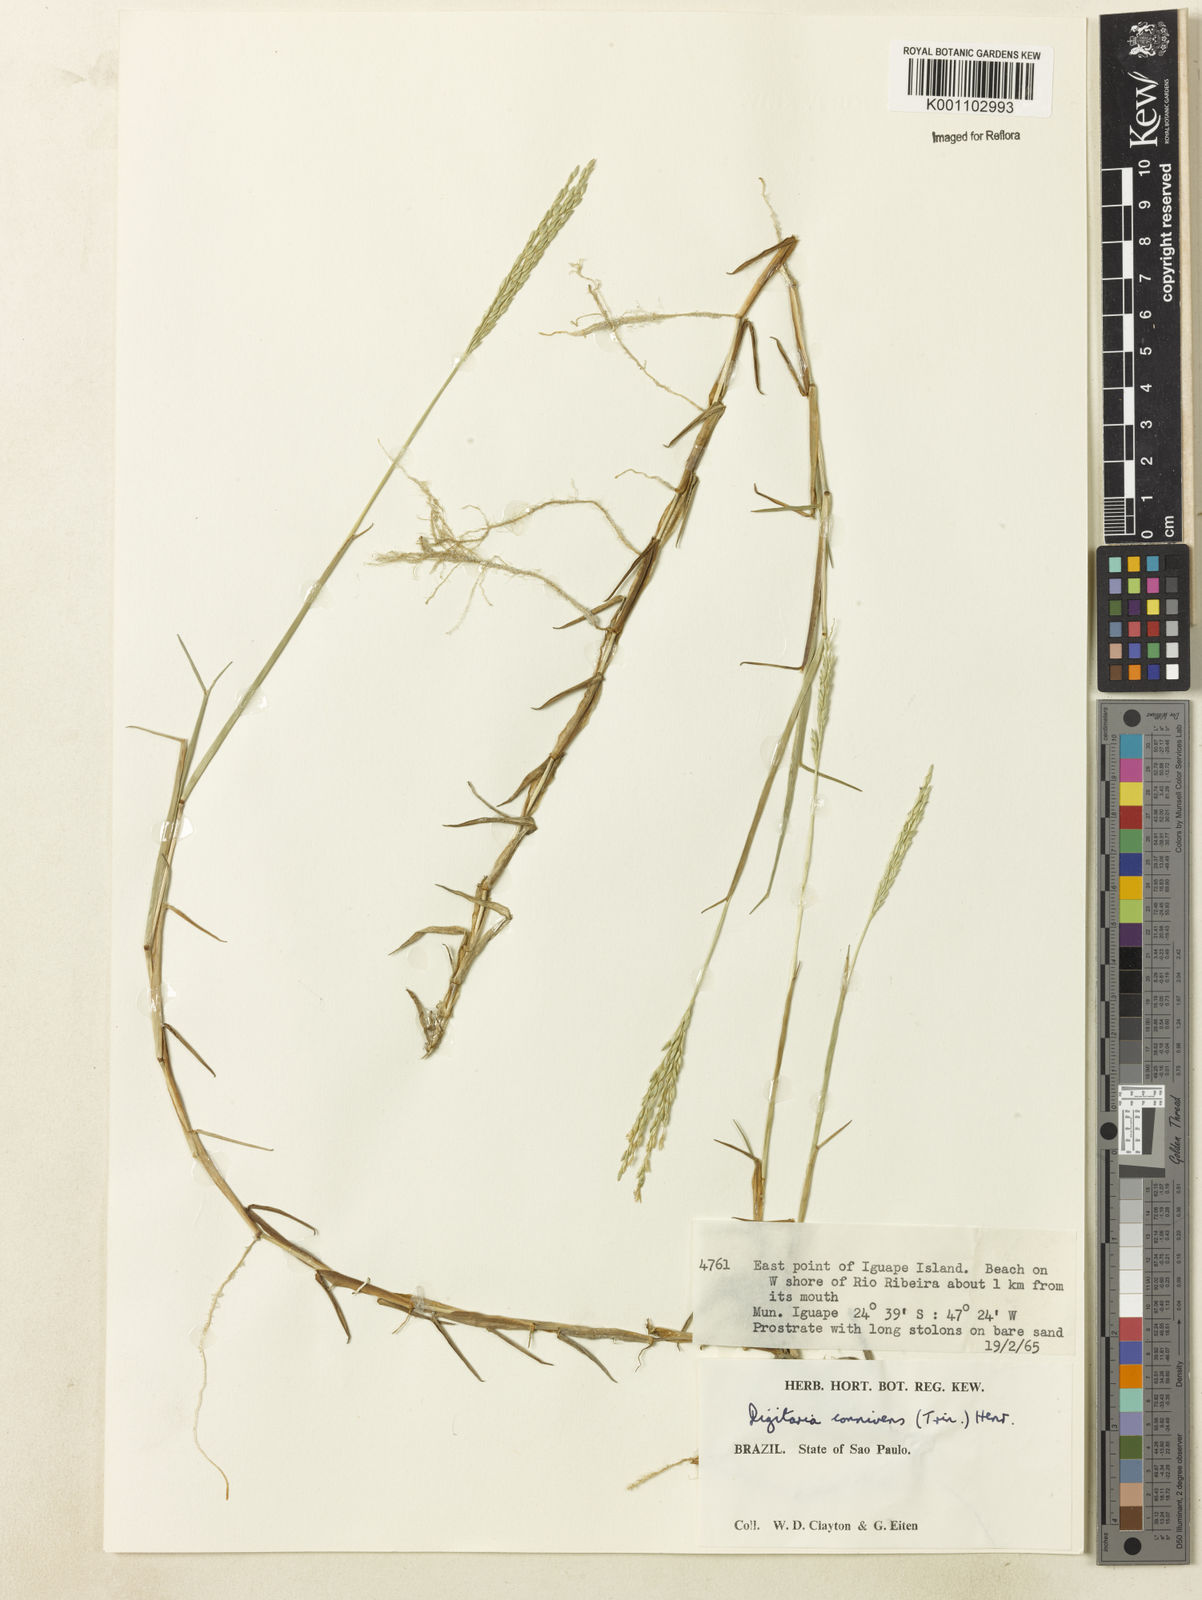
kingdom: Plantae
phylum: Tracheophyta
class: Liliopsida
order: Poales
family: Poaceae
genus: Digitaria
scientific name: Digitaria connivens
